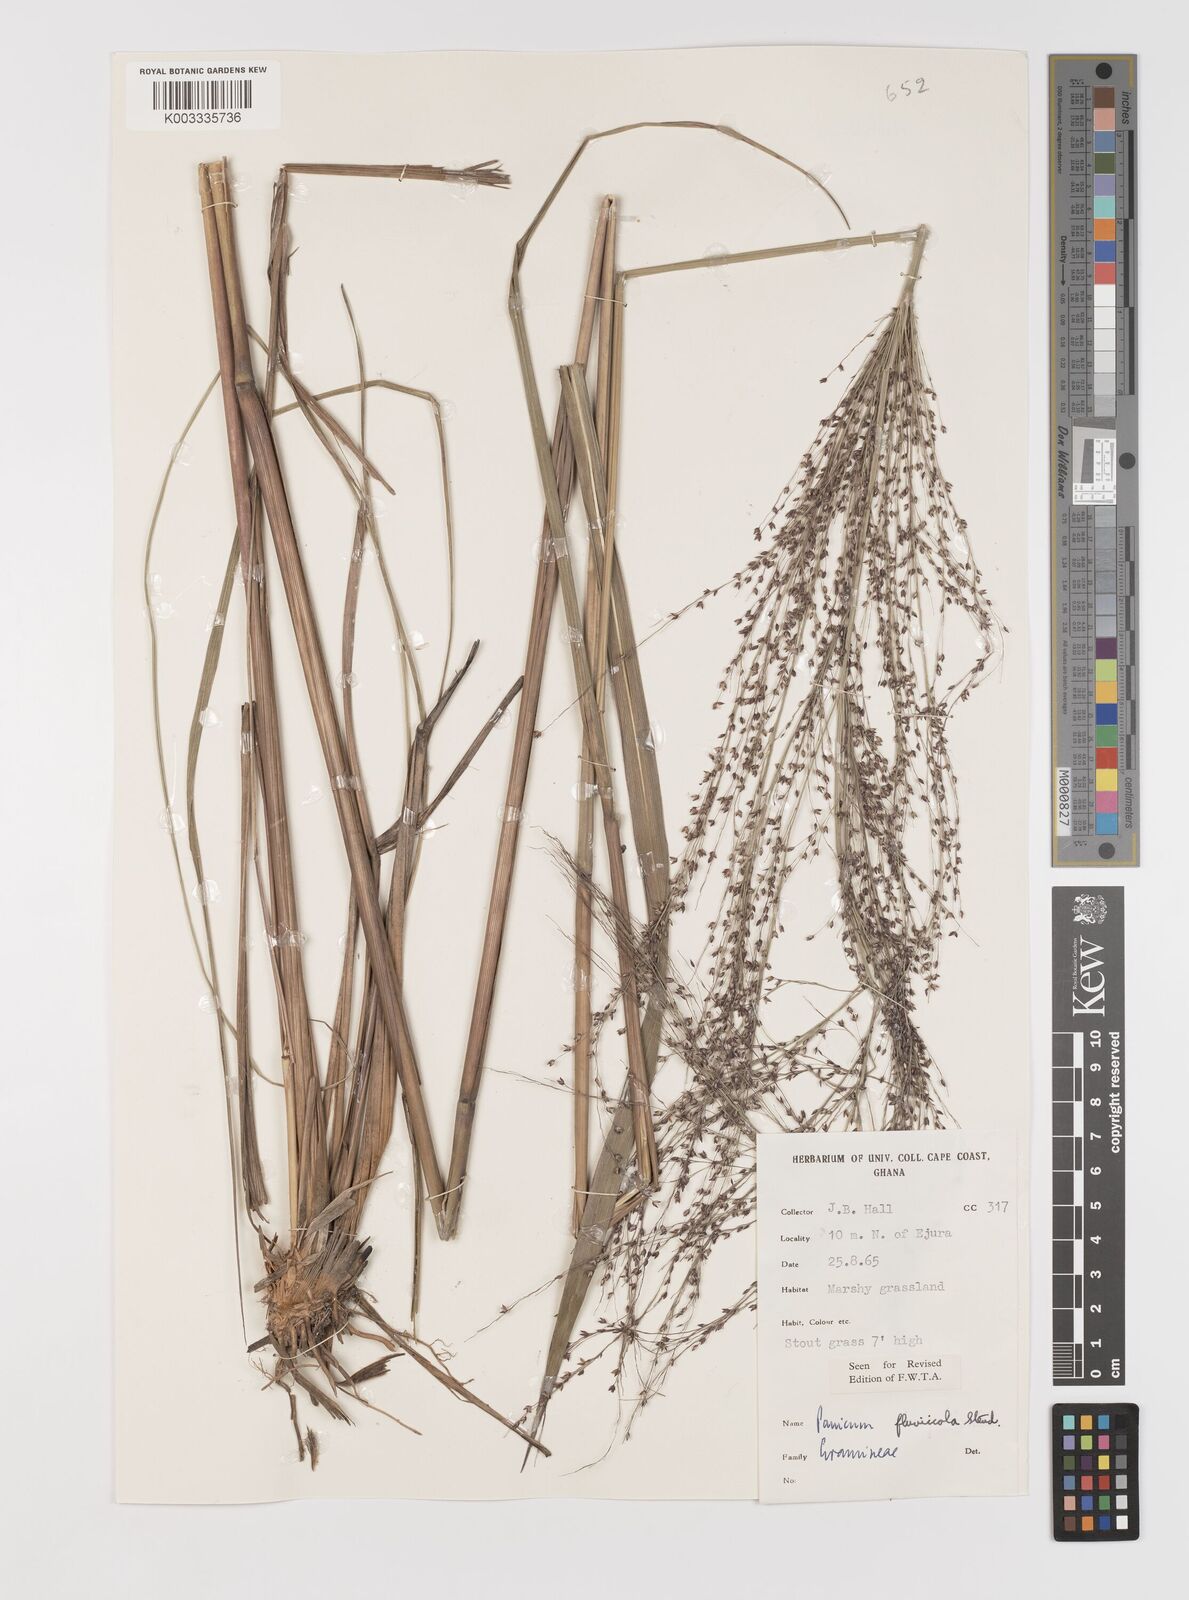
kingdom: Plantae
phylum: Tracheophyta
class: Liliopsida
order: Poales
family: Poaceae
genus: Panicum
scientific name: Panicum fluviicola
